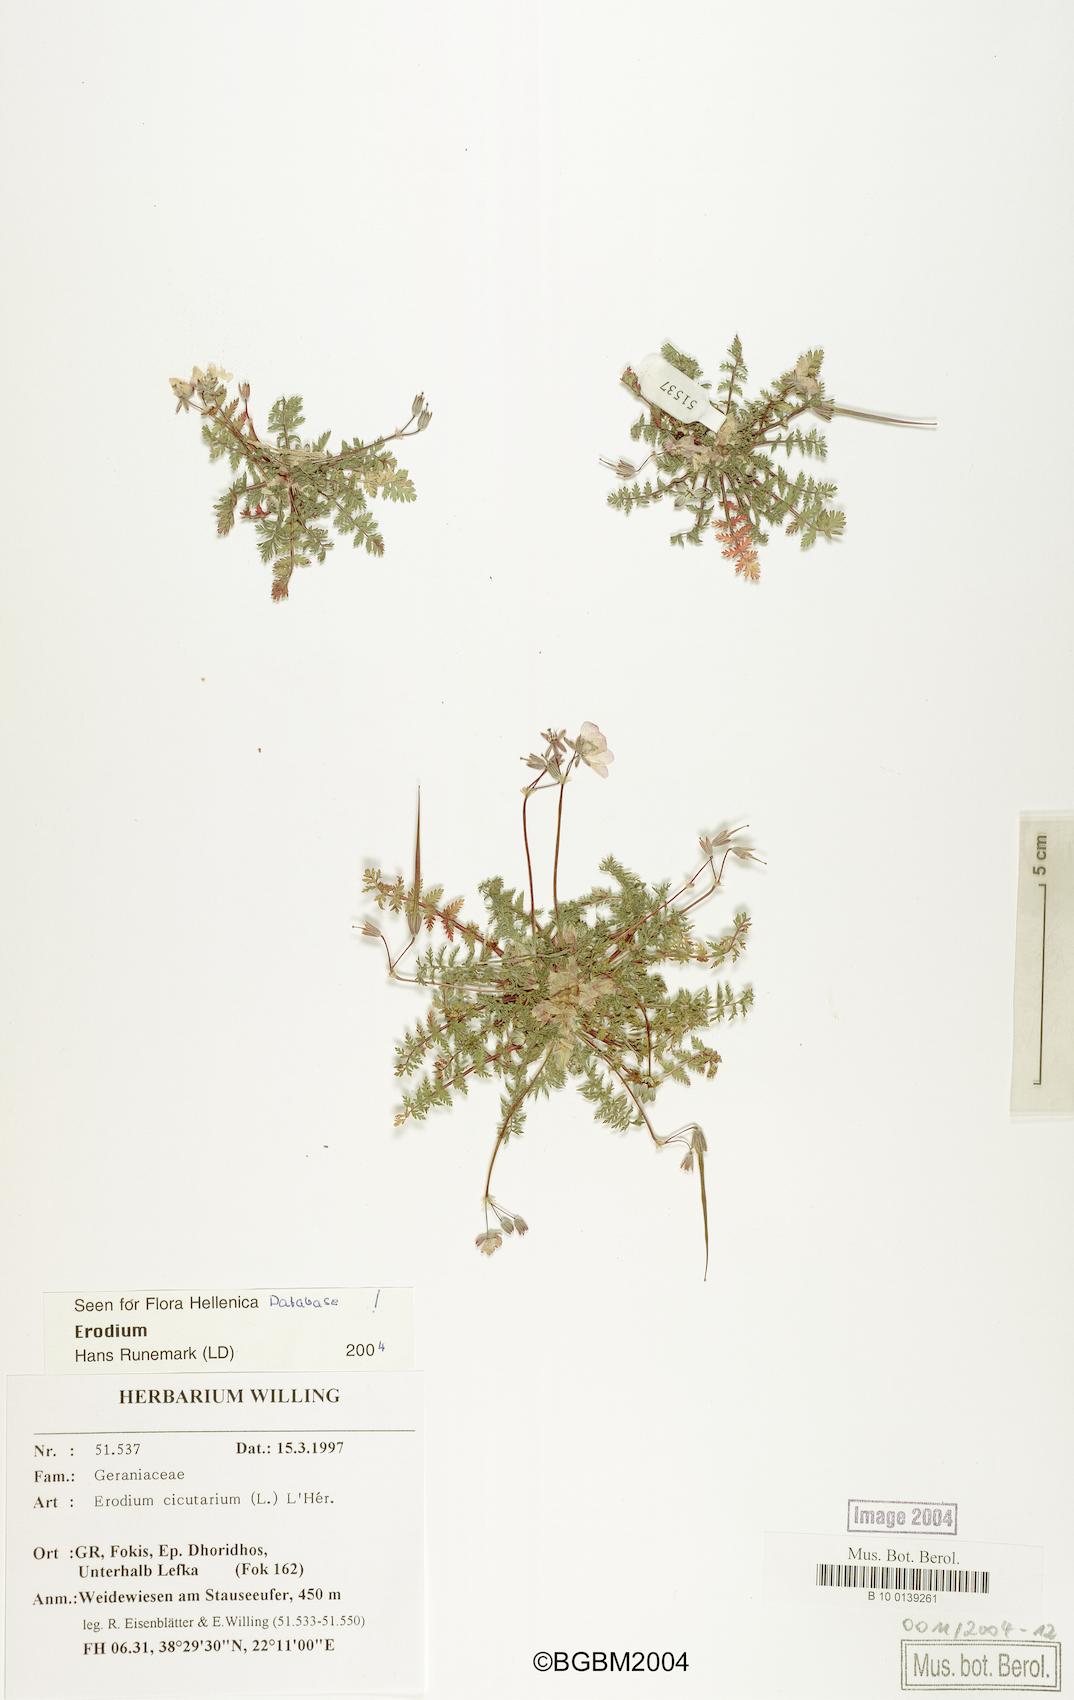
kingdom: Plantae
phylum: Tracheophyta
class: Magnoliopsida
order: Geraniales
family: Geraniaceae
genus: Erodium
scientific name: Erodium cicutarium
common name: Common stork's-bill
